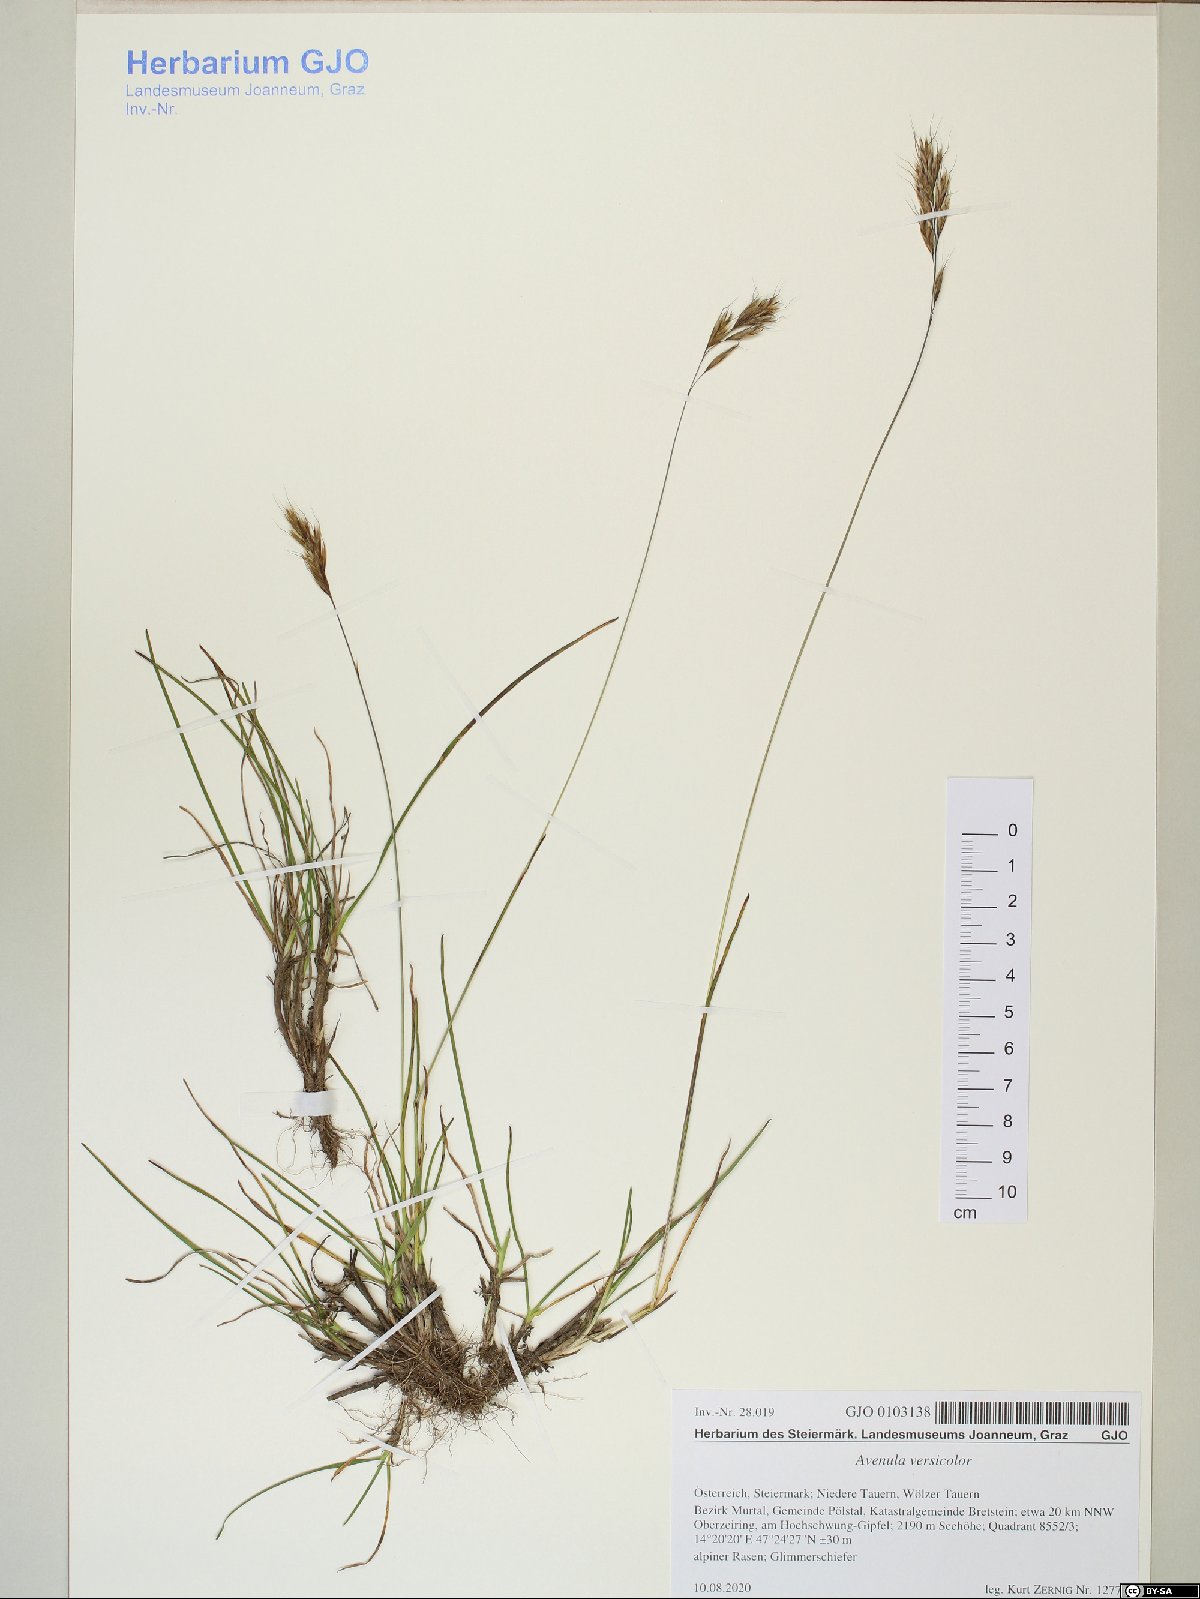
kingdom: Plantae
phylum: Tracheophyta
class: Liliopsida
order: Poales
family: Poaceae
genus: Helictochloa
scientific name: Helictochloa versicolor
